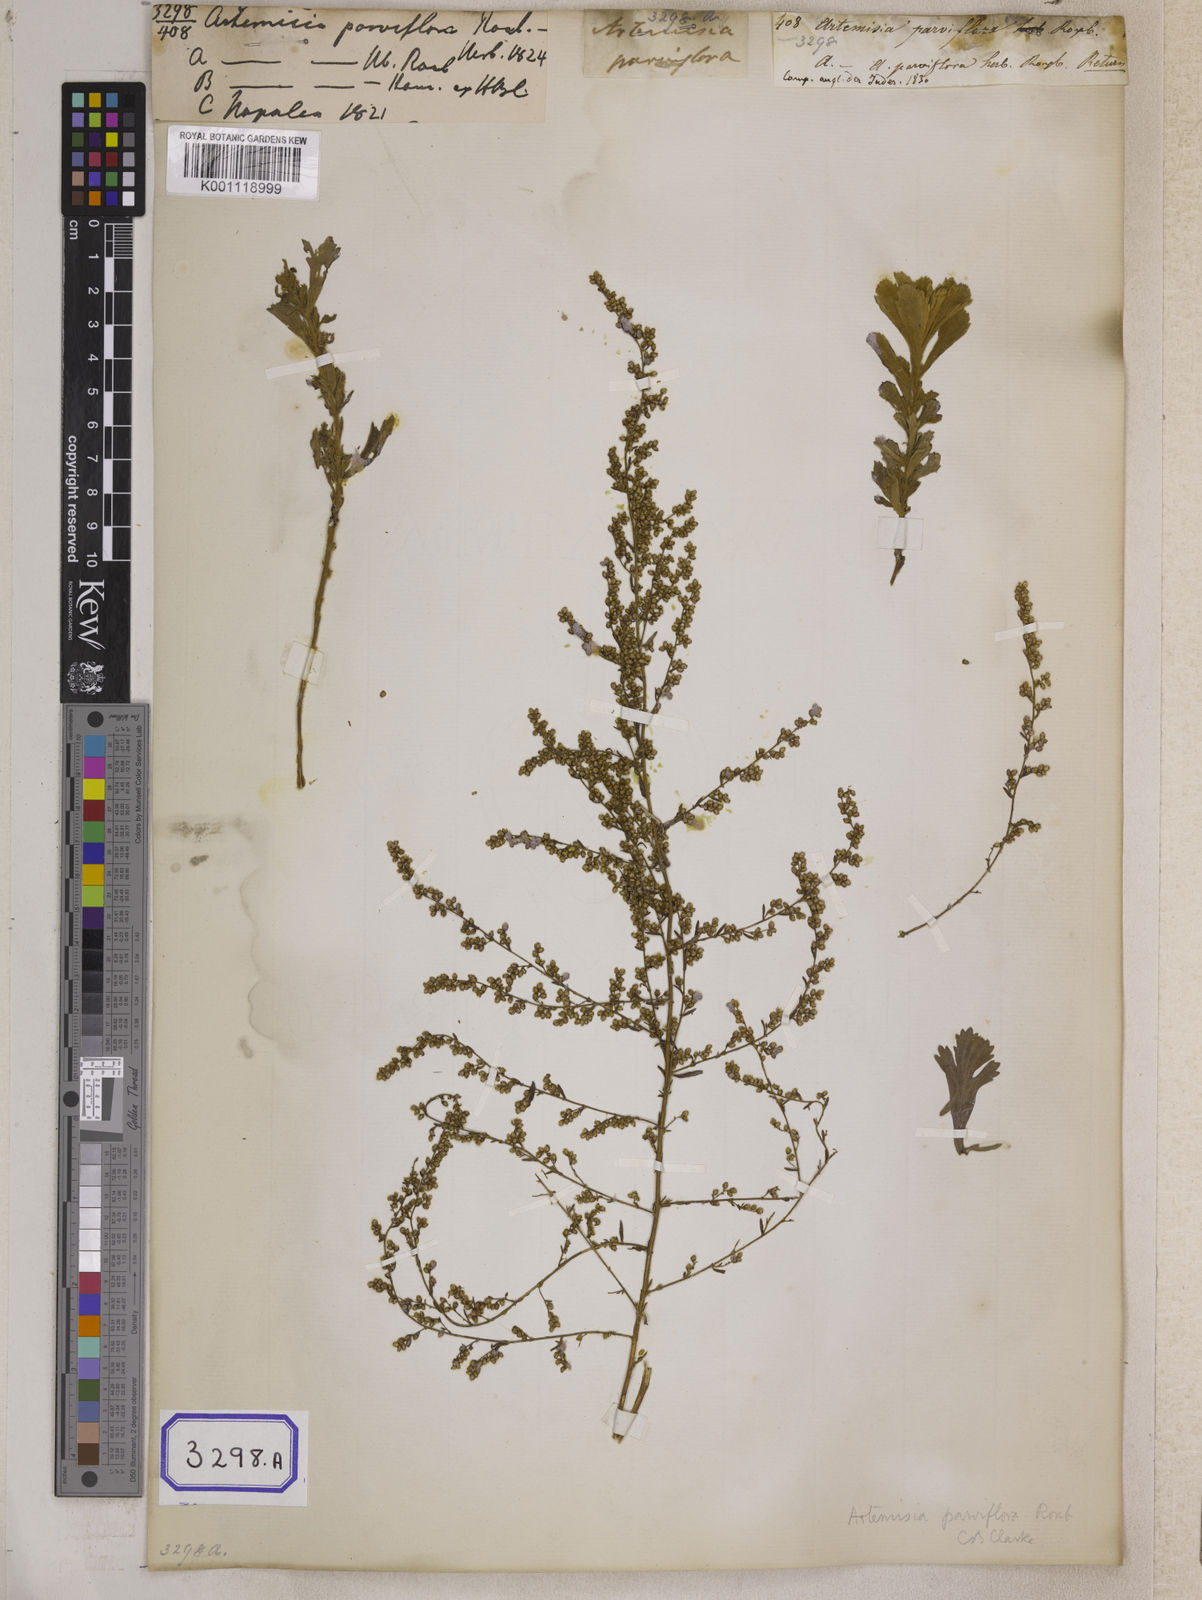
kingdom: Plantae
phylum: Tracheophyta
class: Magnoliopsida
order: Asterales
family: Asteraceae
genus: Artemisia
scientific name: Artemisia parviflora
